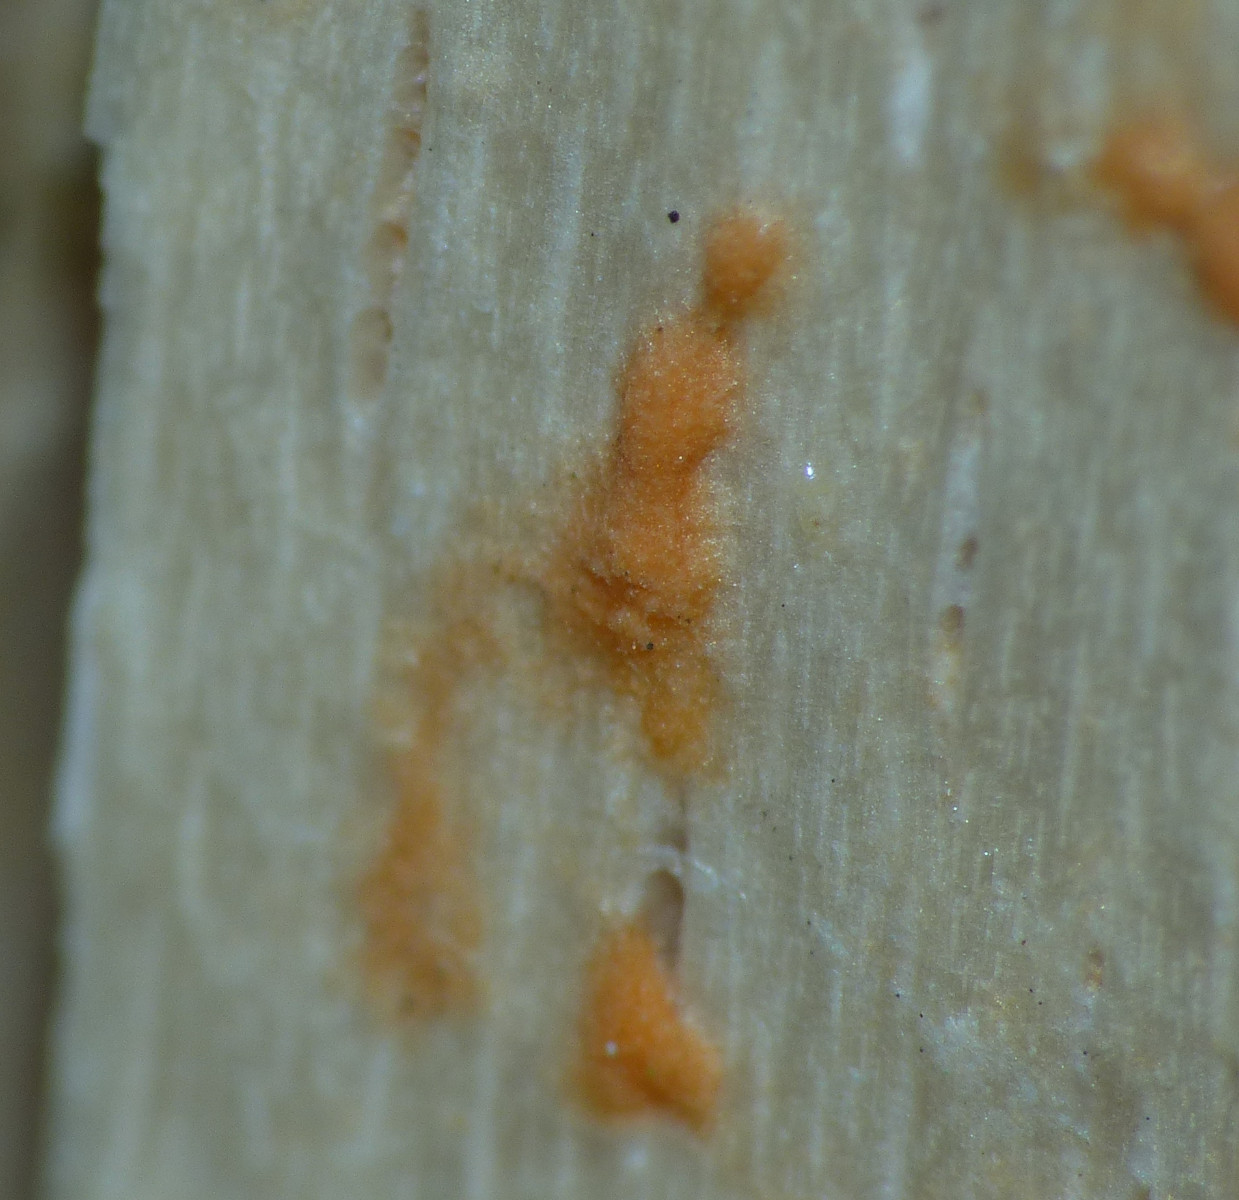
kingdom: Fungi
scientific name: Fungi
